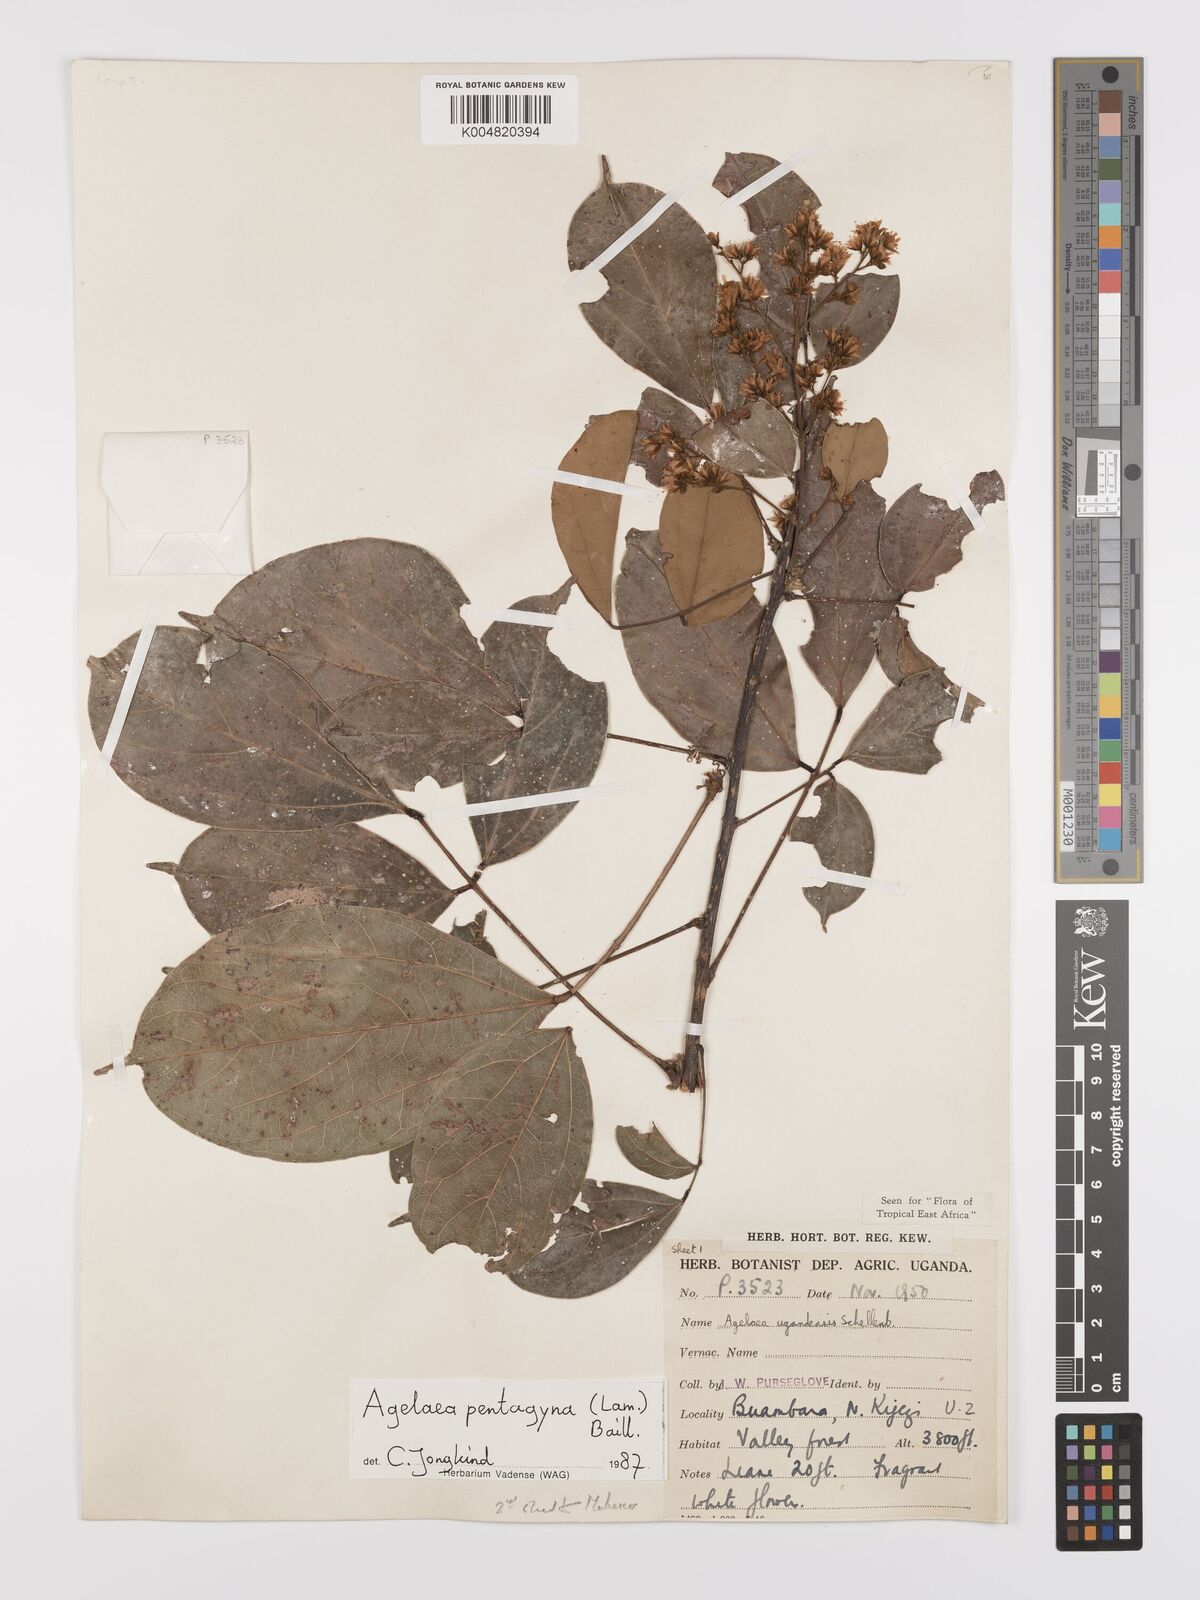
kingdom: Plantae
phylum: Tracheophyta
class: Magnoliopsida
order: Oxalidales
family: Connaraceae
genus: Agelaea
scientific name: Agelaea pentagyna
